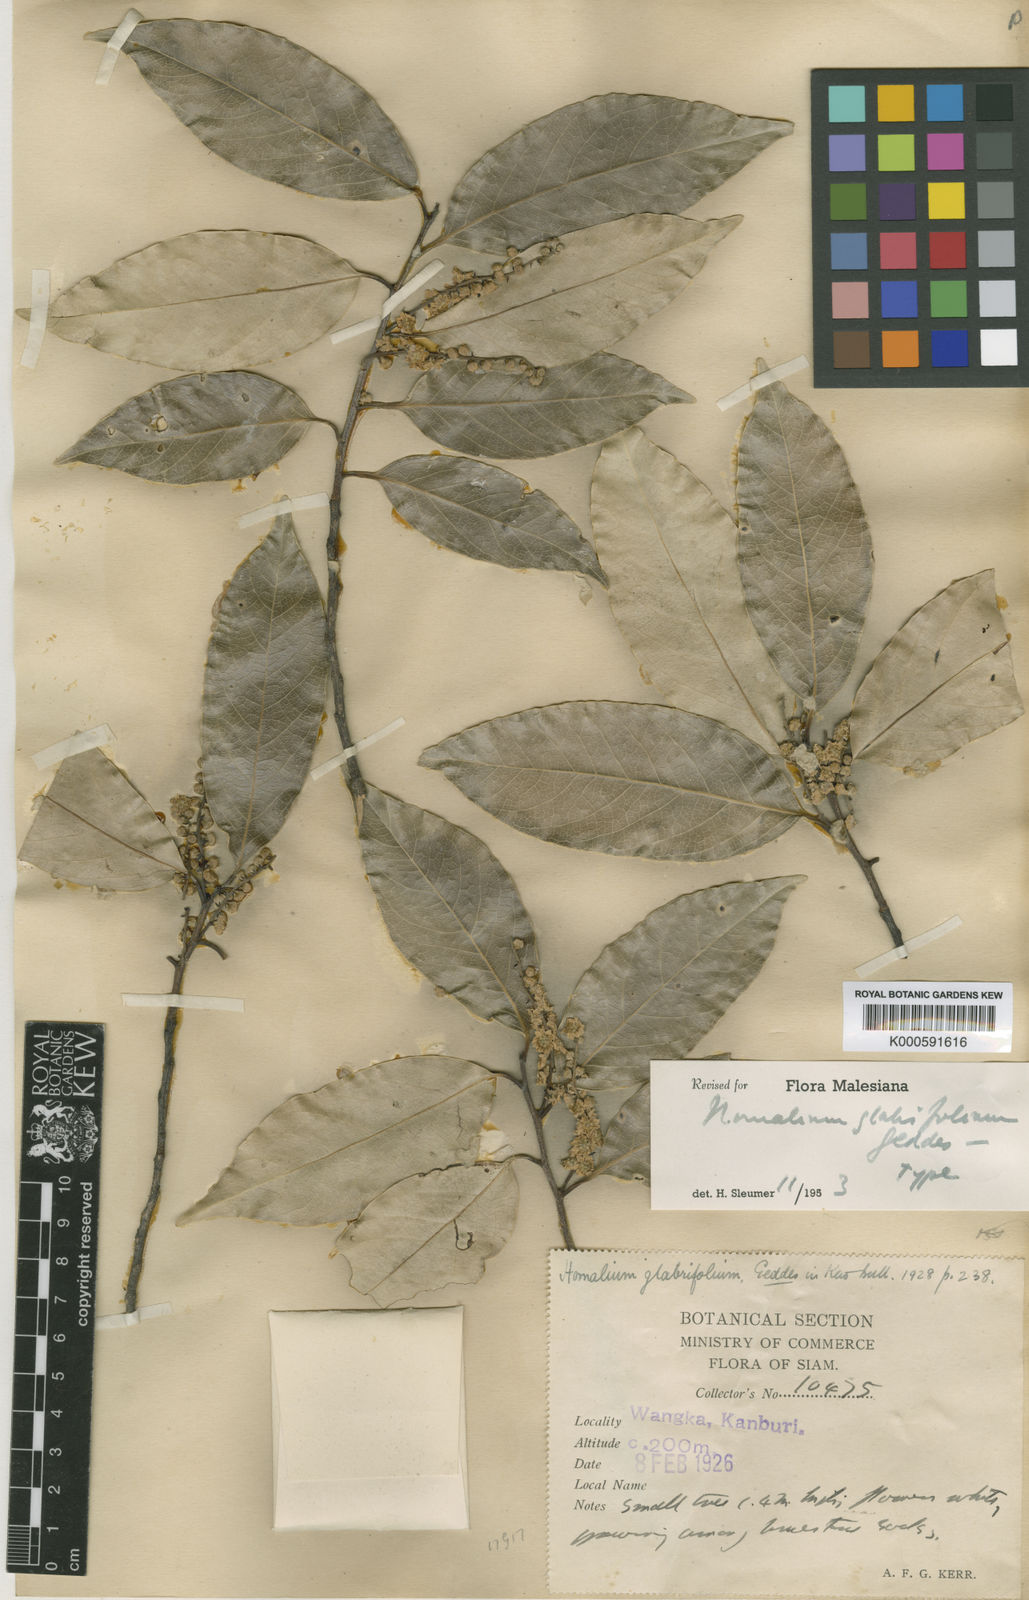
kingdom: Plantae
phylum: Tracheophyta
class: Magnoliopsida
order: Malpighiales
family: Salicaceae
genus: Homalium
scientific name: Homalium glabrifolium
